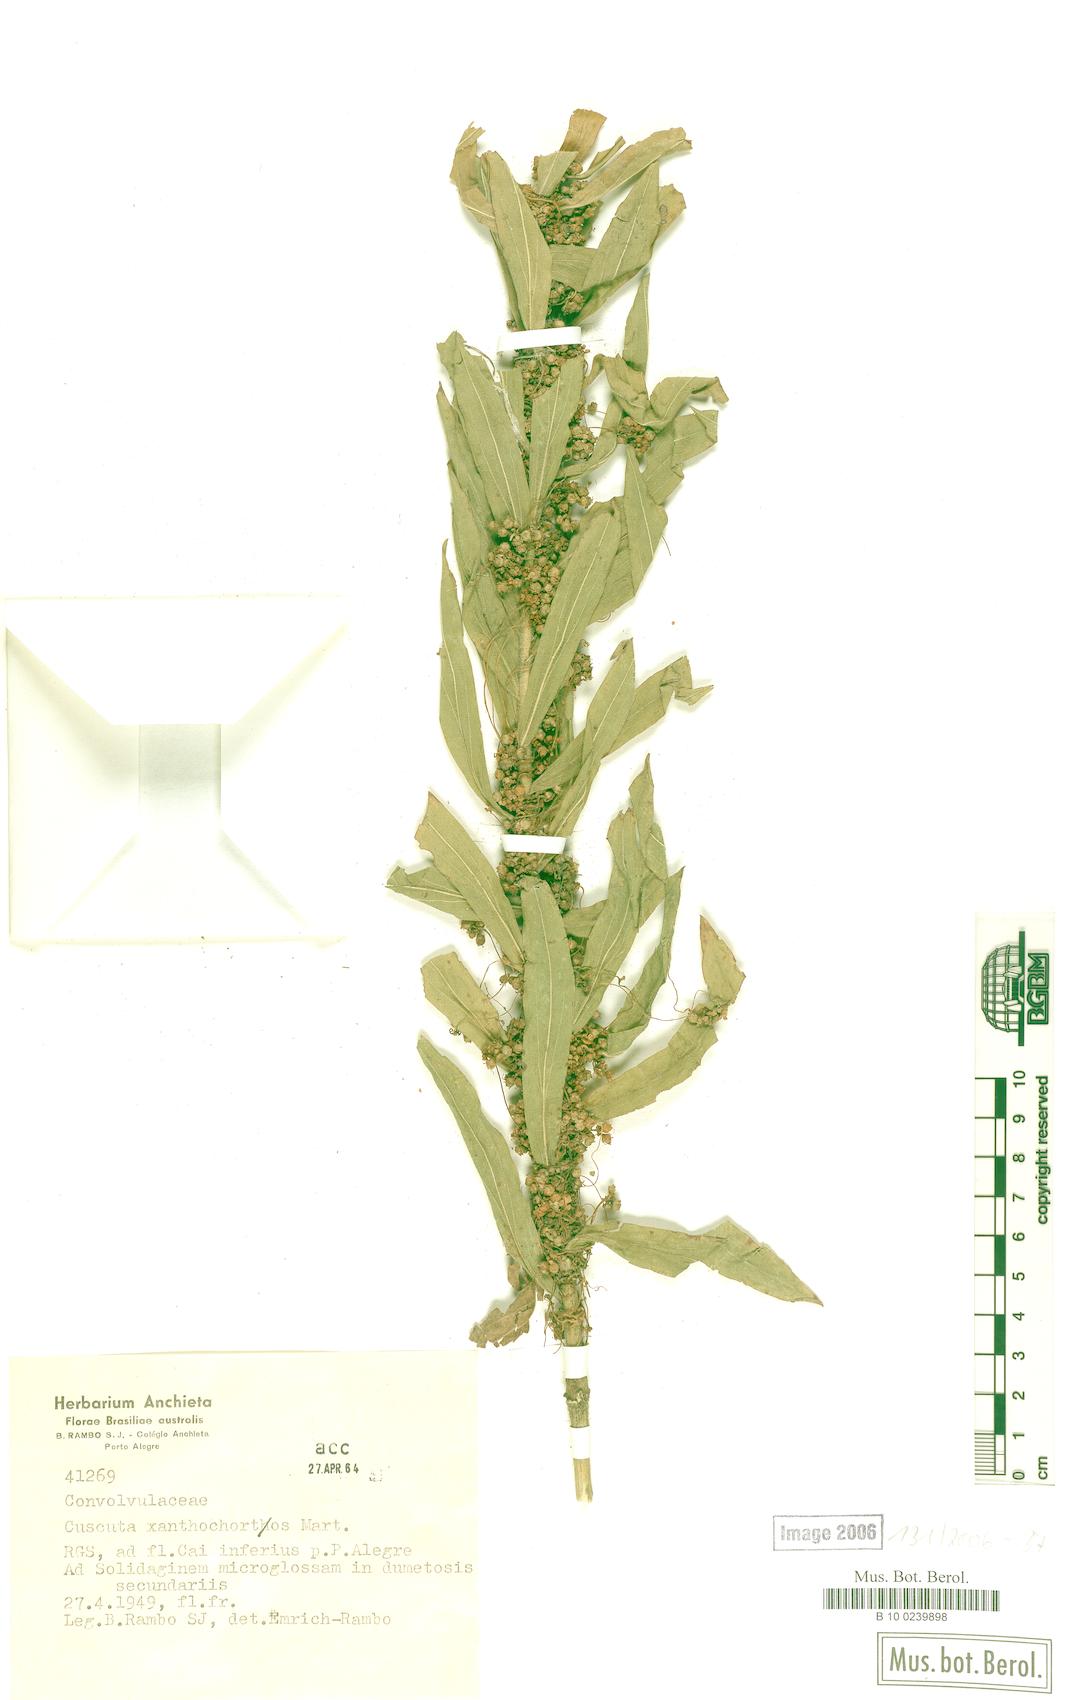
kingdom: Plantae
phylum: Tracheophyta
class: Magnoliopsida
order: Solanales
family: Convolvulaceae
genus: Cuscuta
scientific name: Cuscuta xanthochortos
